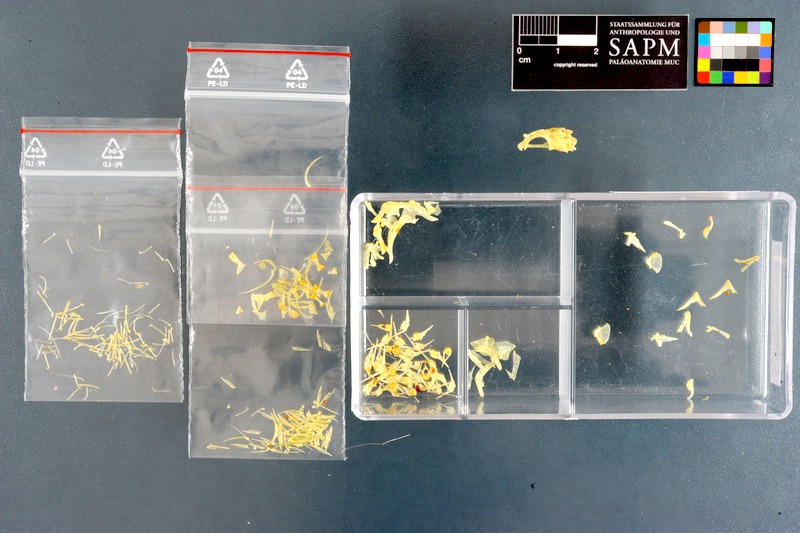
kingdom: Animalia
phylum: Chordata
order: Perciformes
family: Clinidae
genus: Clinus
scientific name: Clinus berrisfordi
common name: Onrust klipfish
